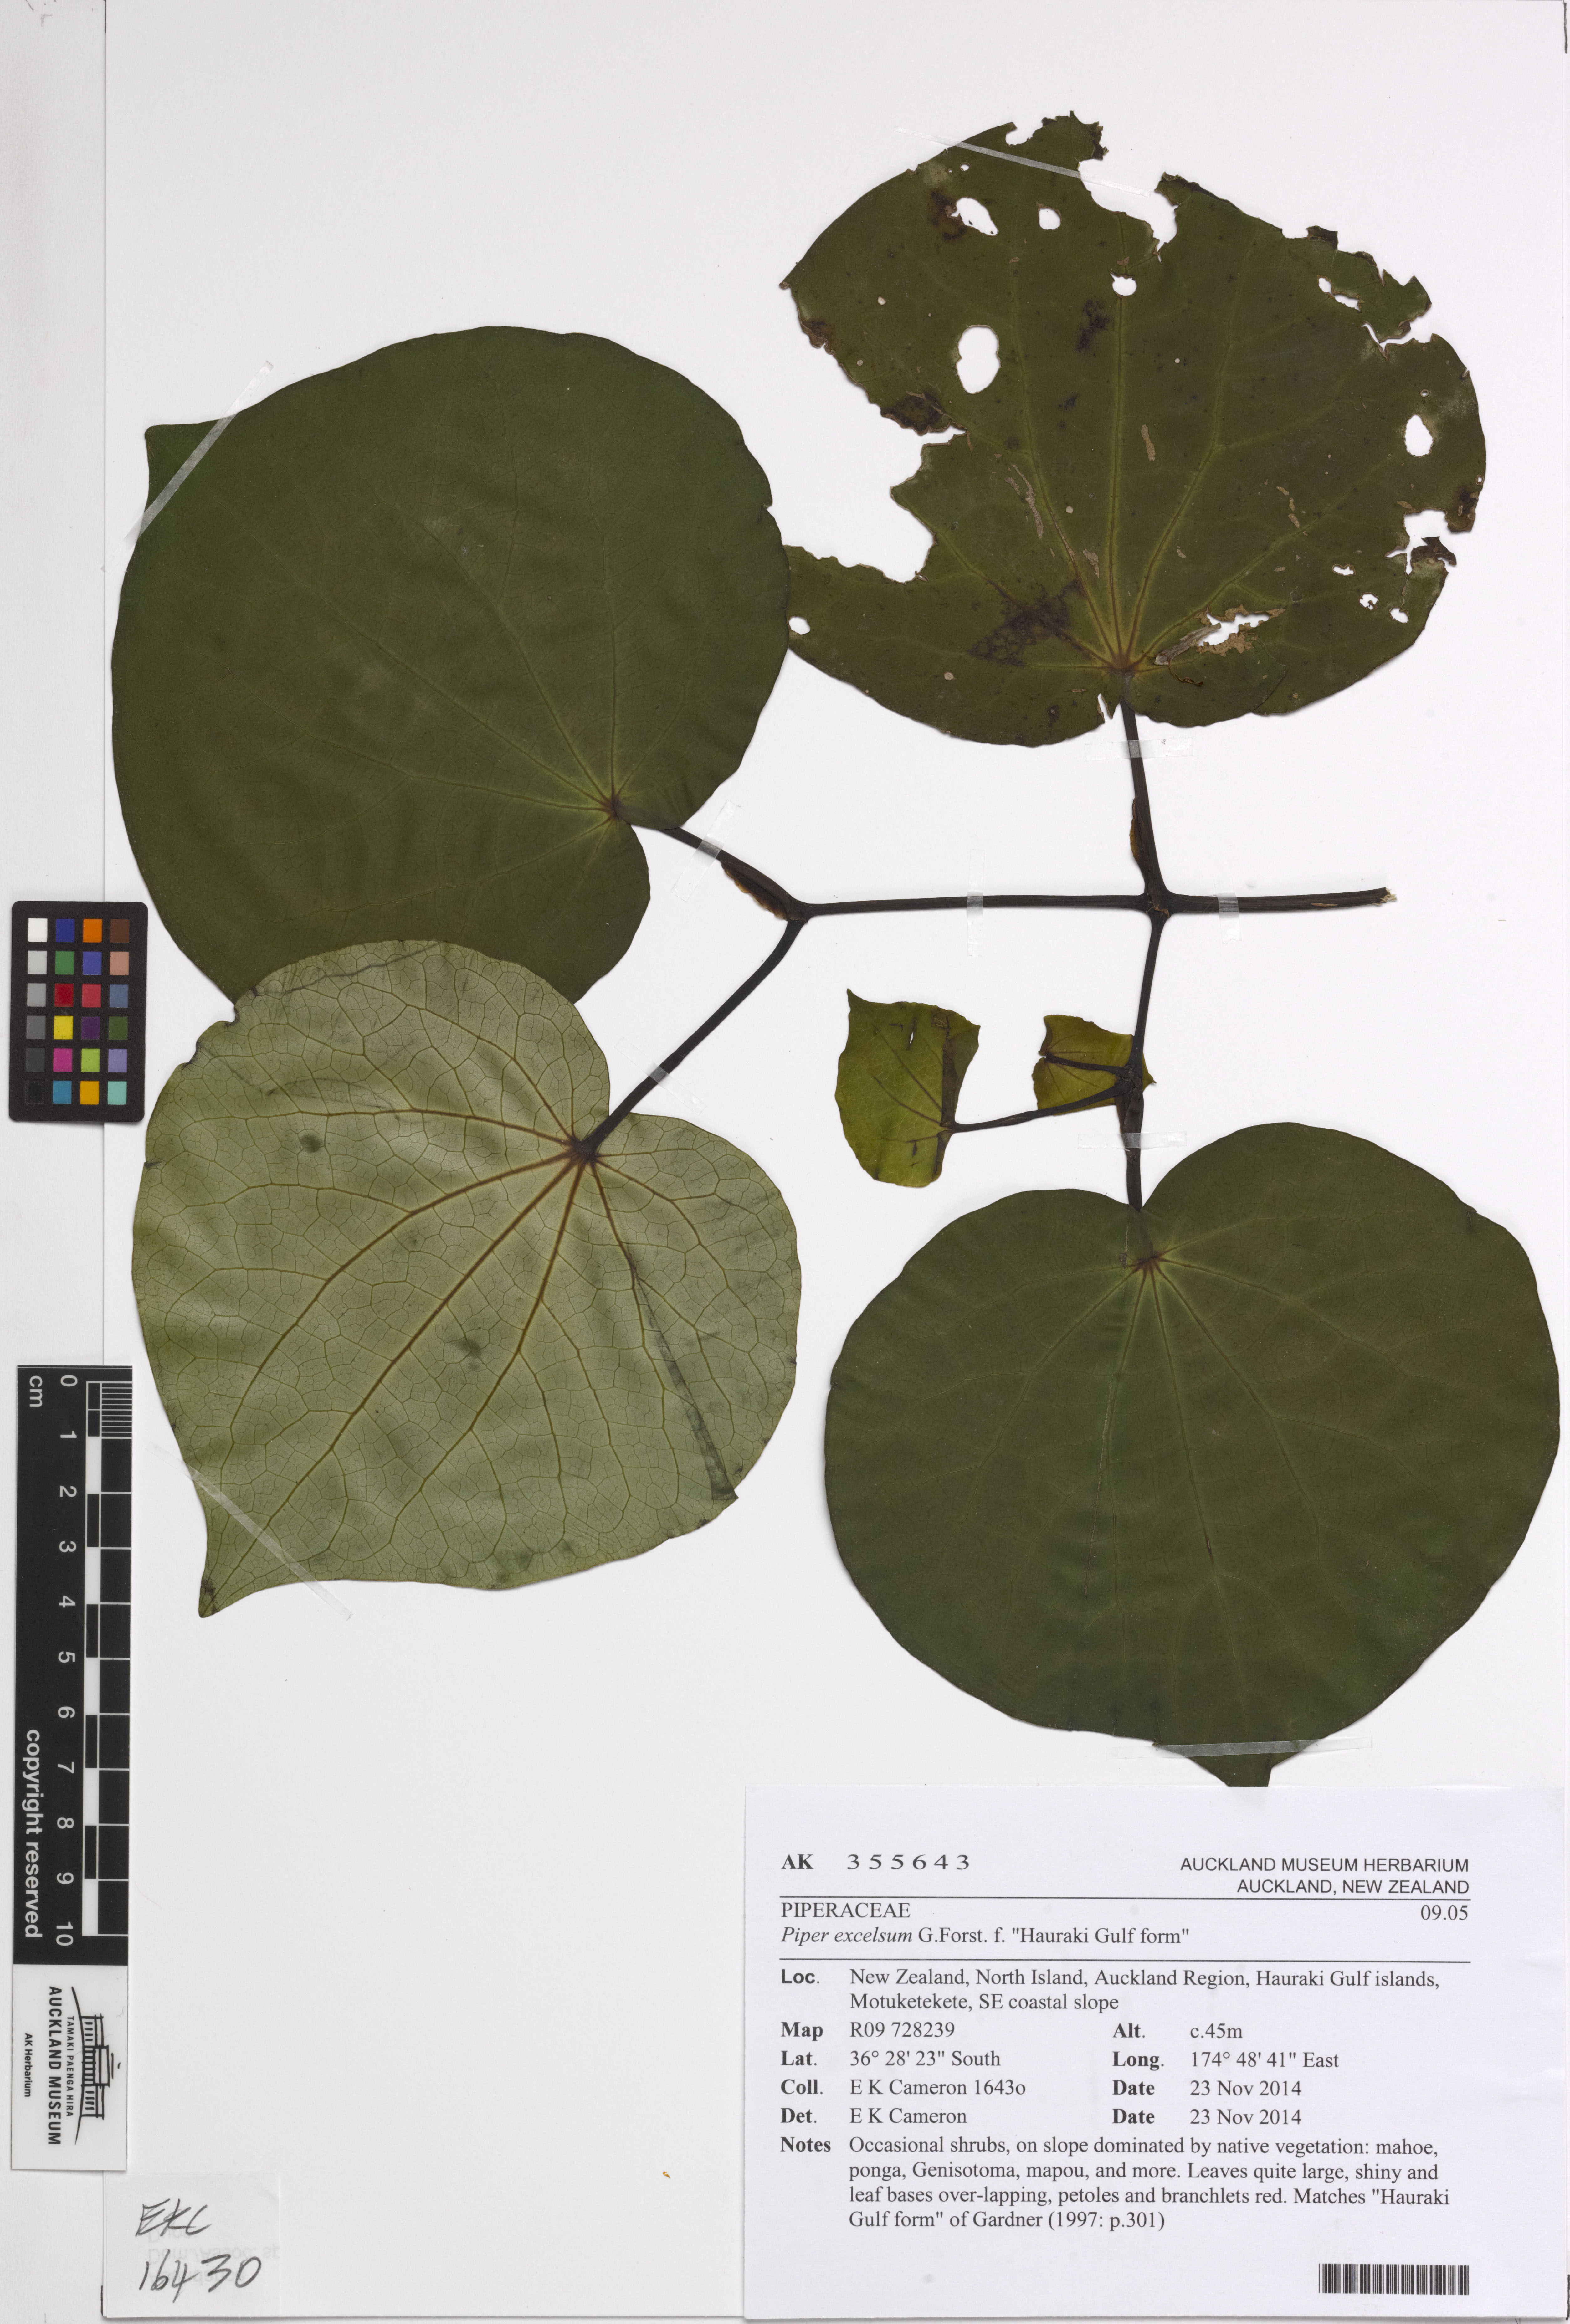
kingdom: Plantae
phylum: Tracheophyta
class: Magnoliopsida
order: Piperales
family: Piperaceae
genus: Macropiper
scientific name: Macropiper excelsum
